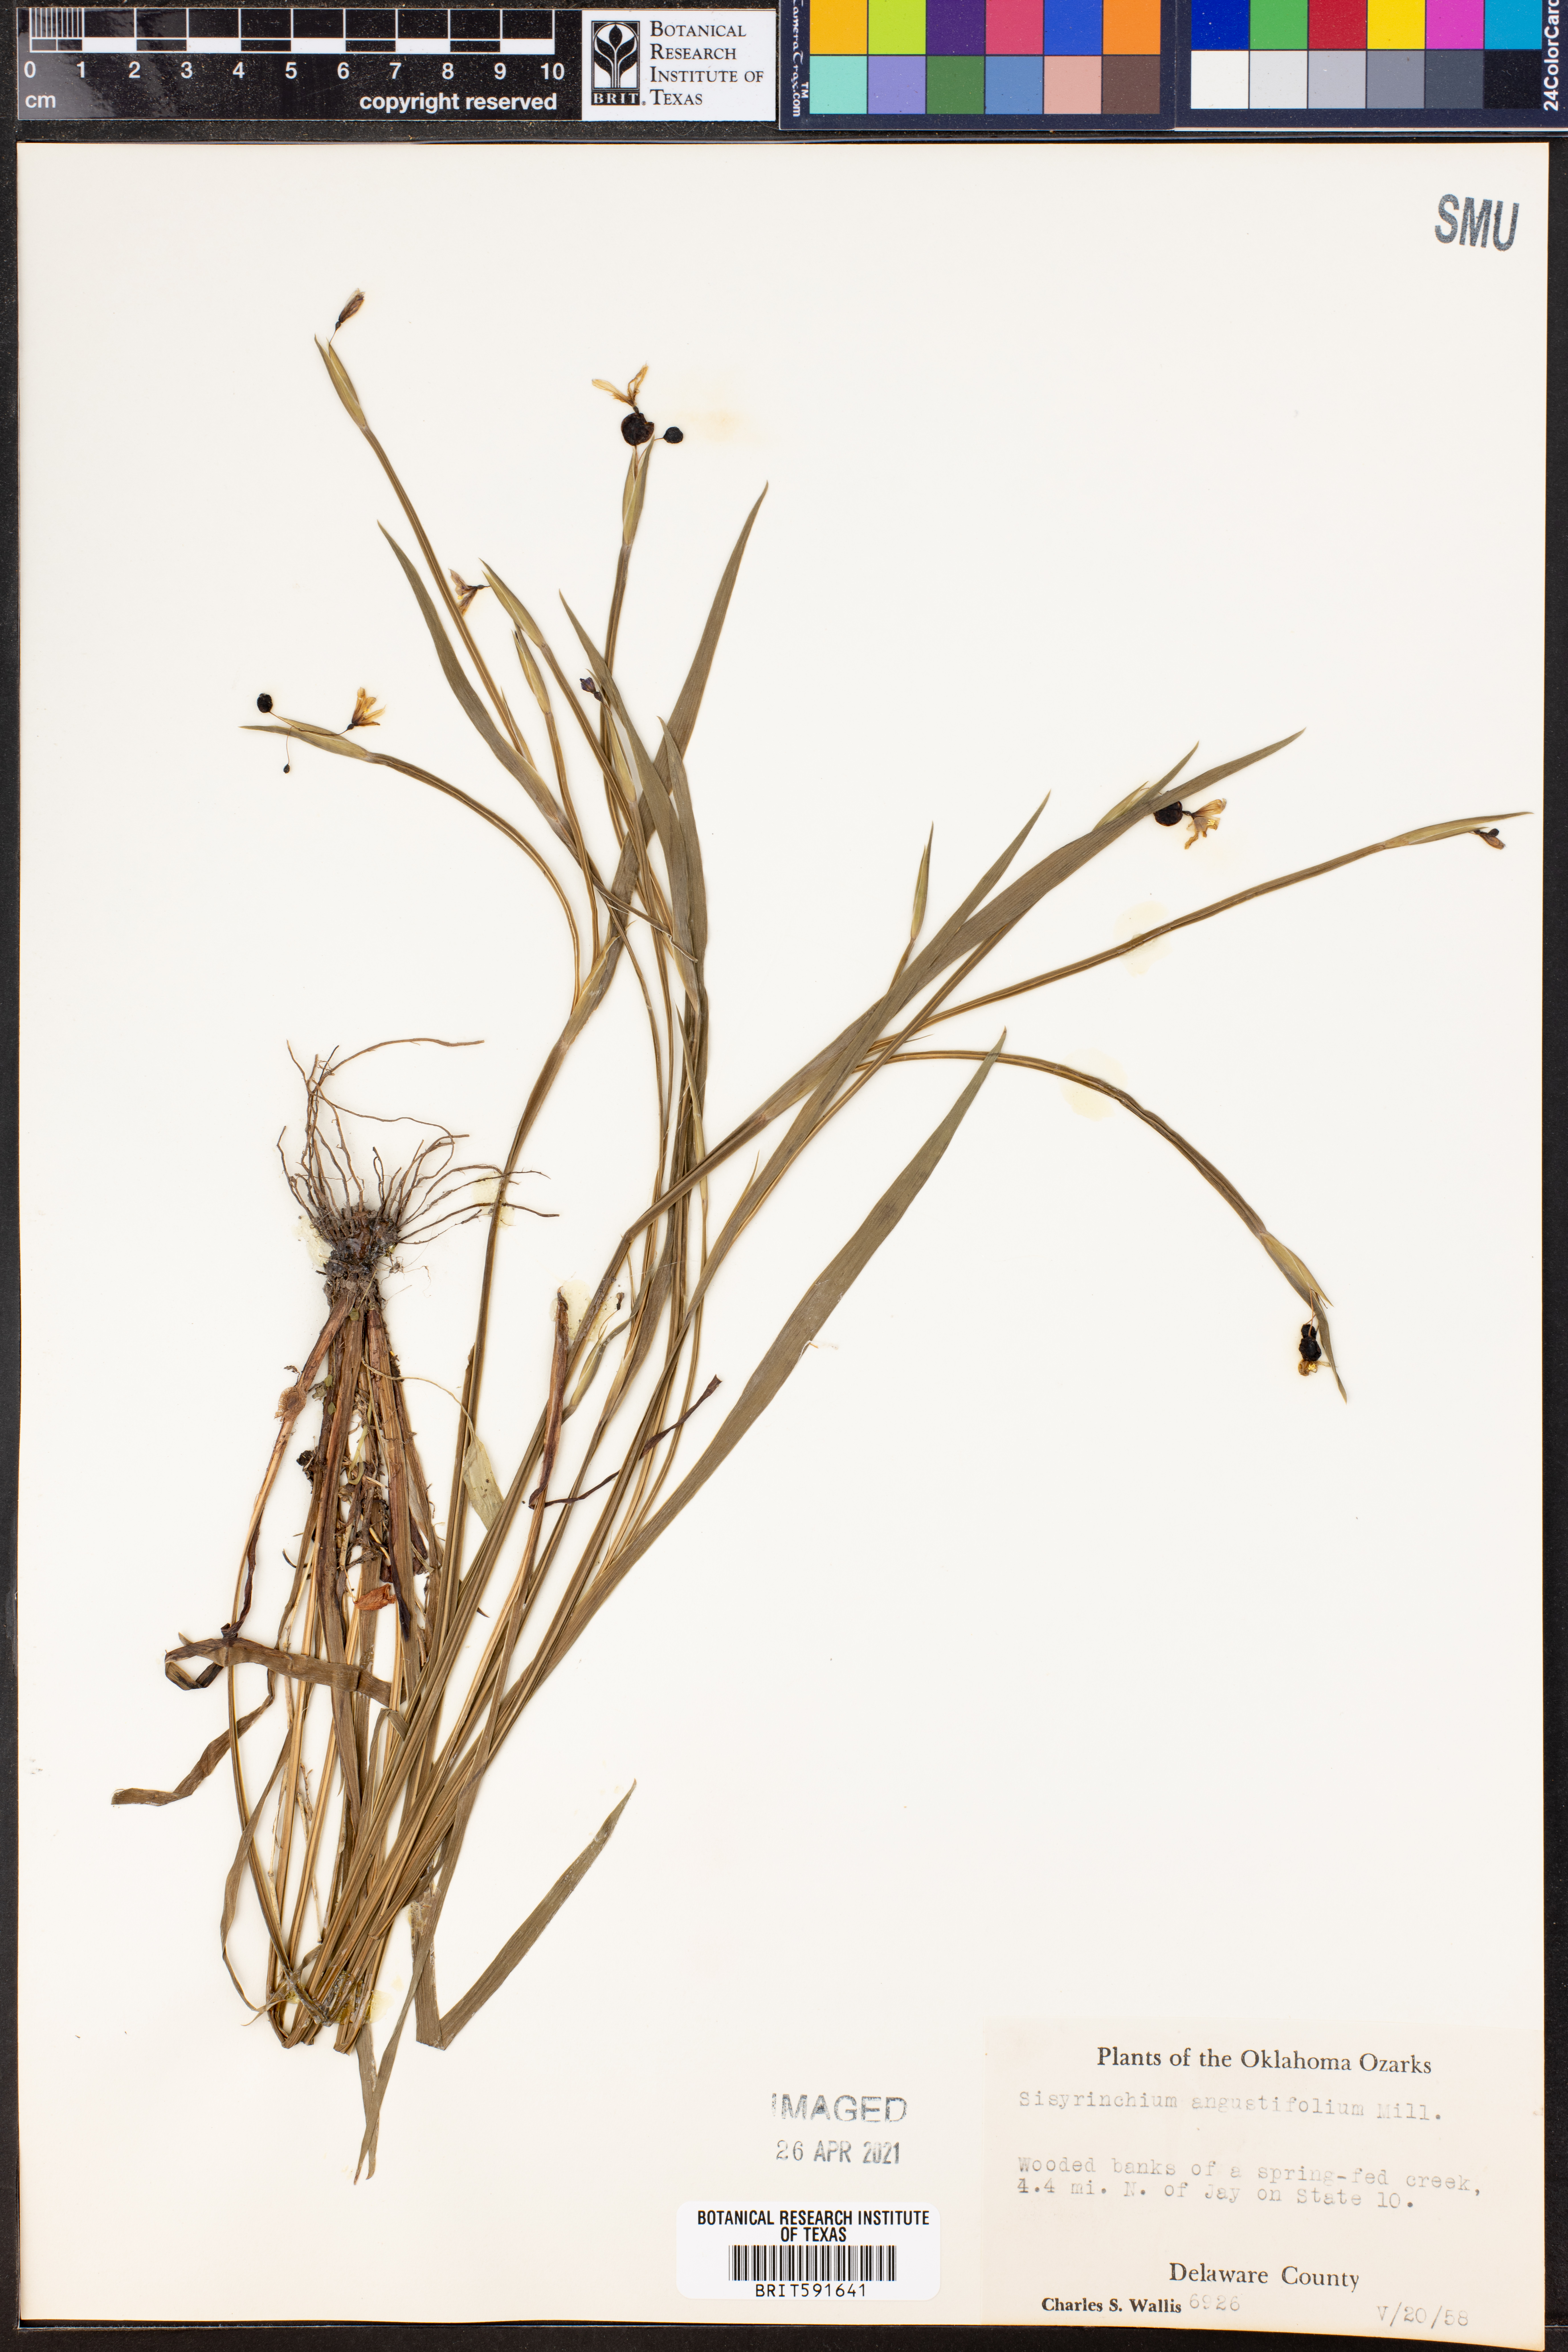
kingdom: Plantae
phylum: Tracheophyta
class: Liliopsida
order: Asparagales
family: Iridaceae
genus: Sisyrinchium
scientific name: Sisyrinchium angustifolium
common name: Narrow-leaf blue-eyed-grass
